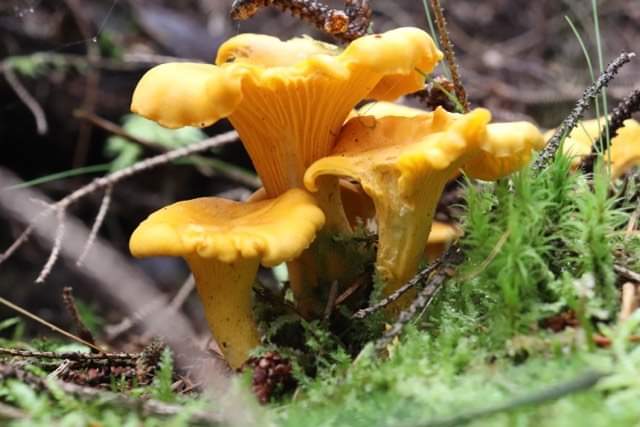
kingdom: Fungi
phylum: Basidiomycota
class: Agaricomycetes
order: Cantharellales
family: Hydnaceae
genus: Cantharellus
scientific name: Cantharellus cibarius
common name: almindelig kantarel
